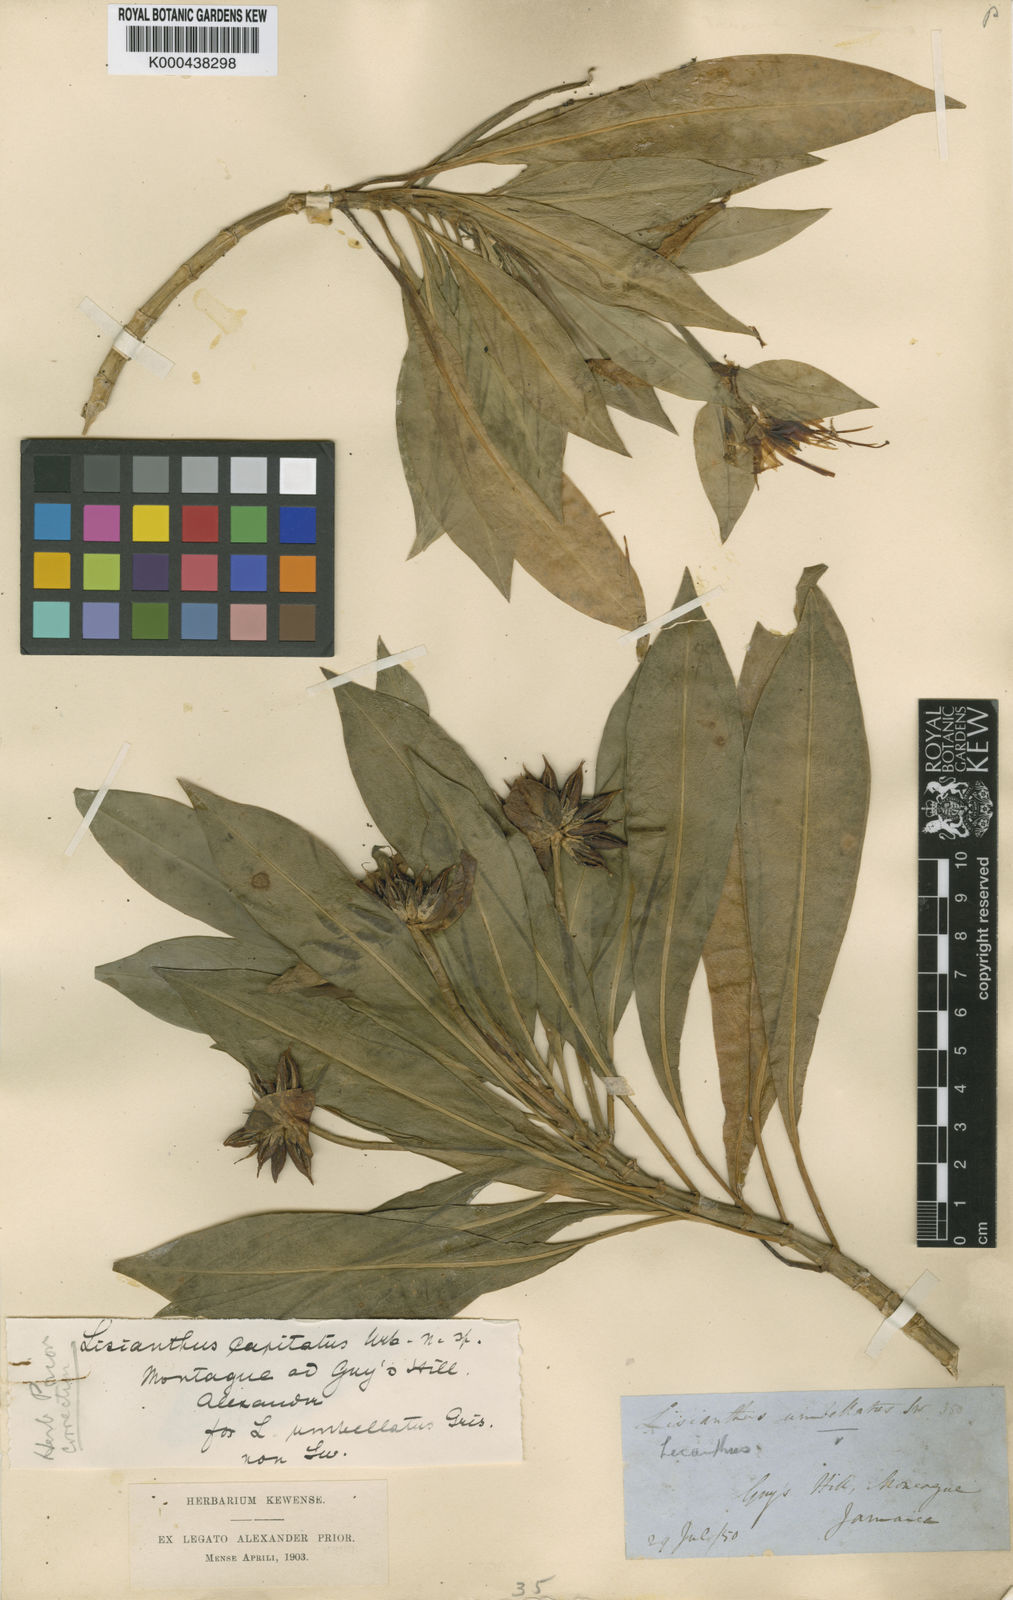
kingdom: Plantae
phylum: Tracheophyta
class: Magnoliopsida
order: Gentianales
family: Gentianaceae
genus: Lisianthius
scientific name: Lisianthius capitatus
